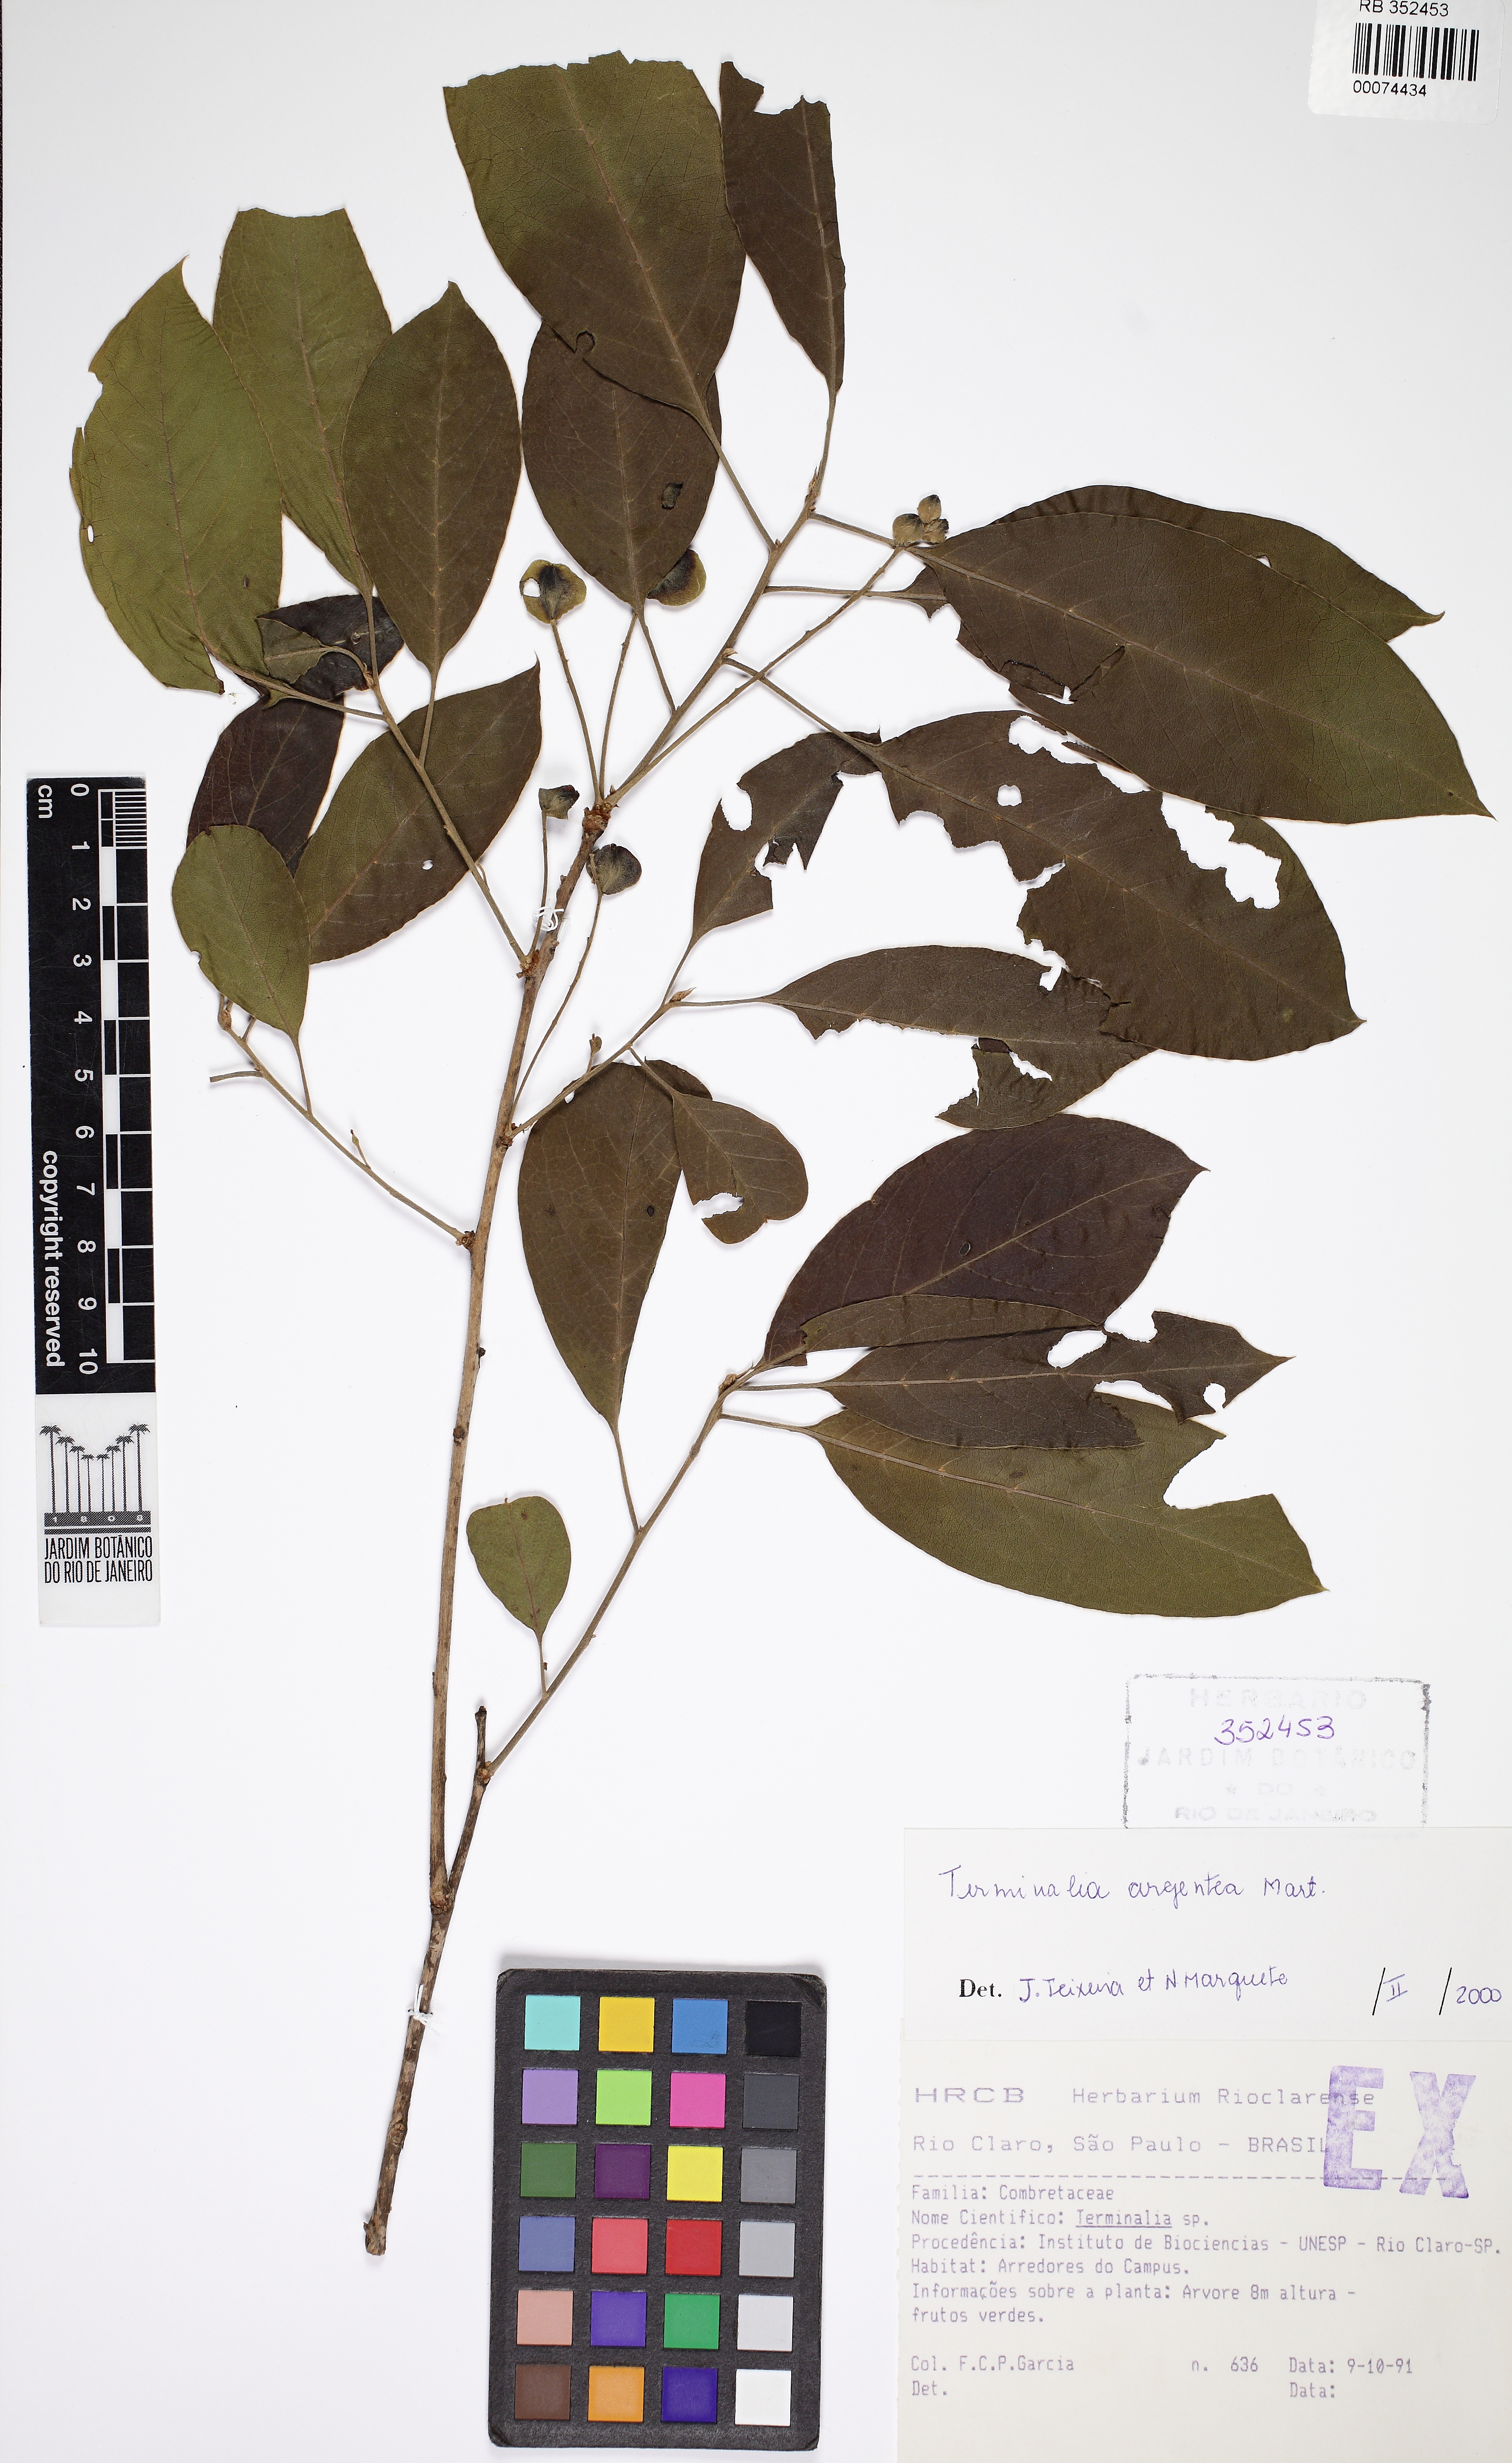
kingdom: Plantae
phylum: Tracheophyta
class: Magnoliopsida
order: Myrtales
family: Combretaceae
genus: Terminalia
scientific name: Terminalia argentea
